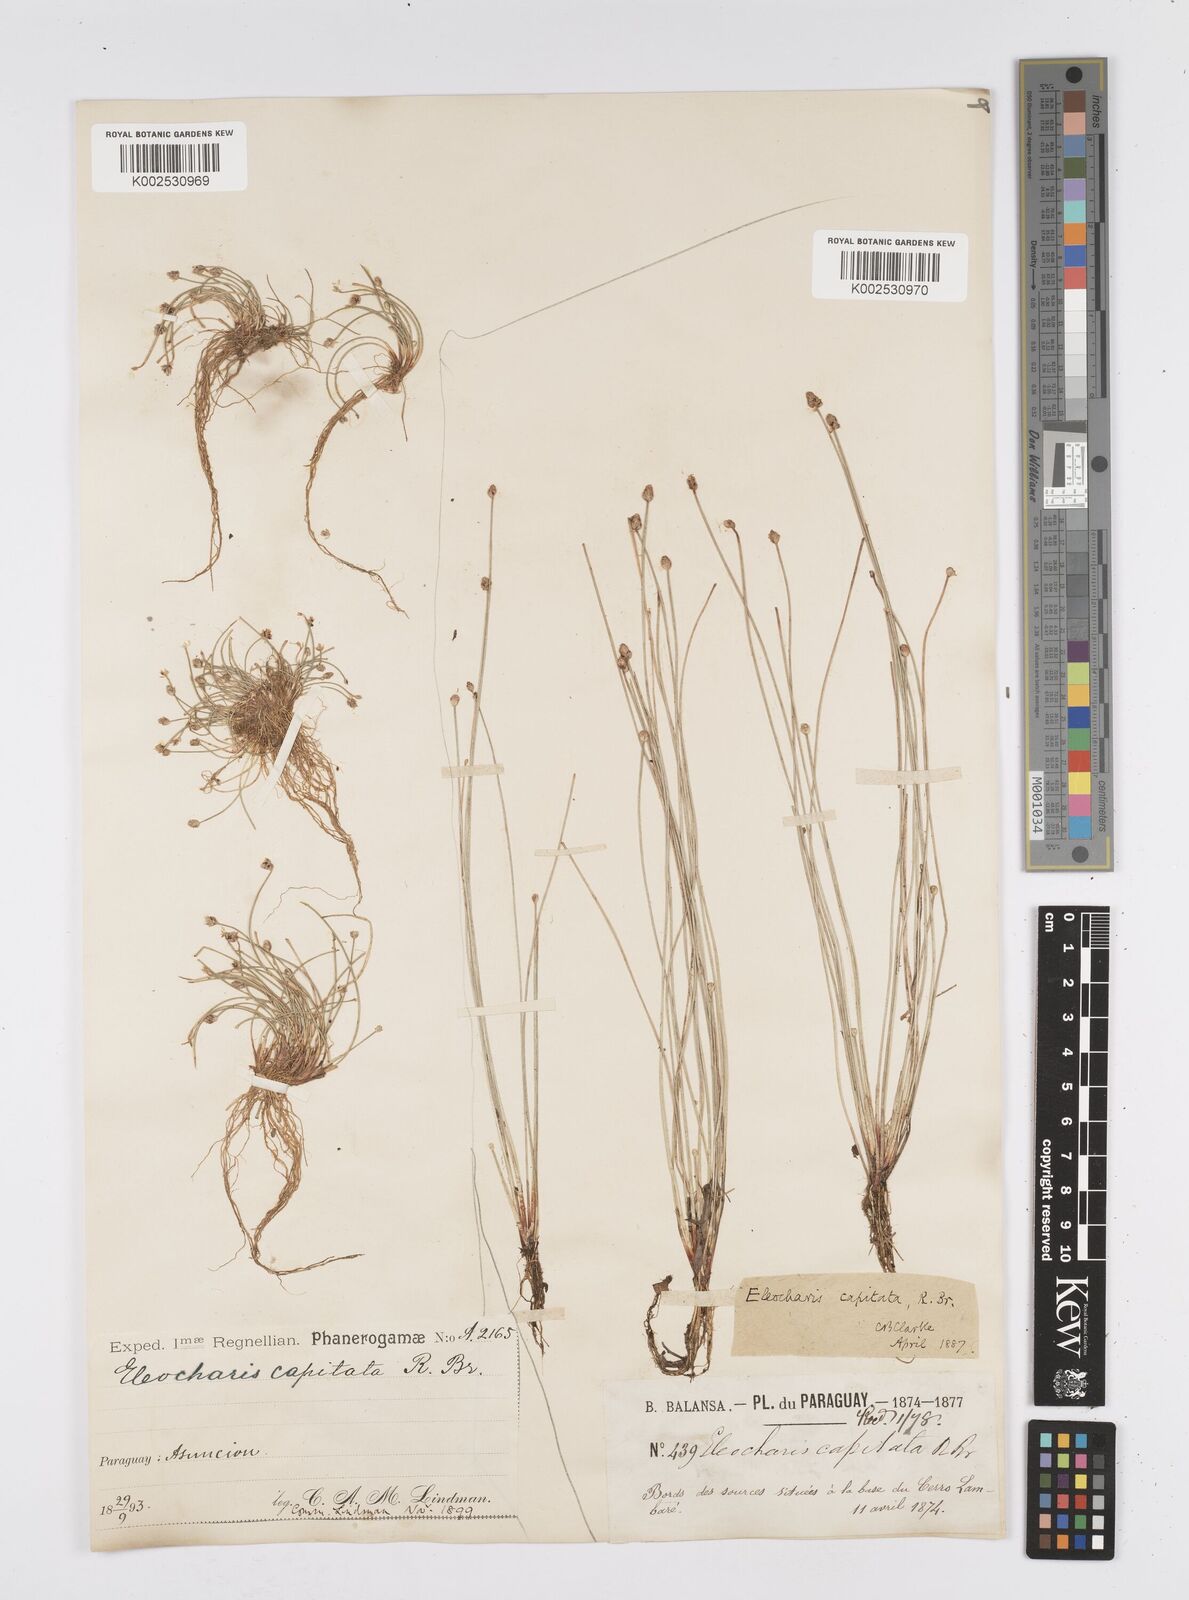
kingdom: Plantae
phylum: Tracheophyta
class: Liliopsida
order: Poales
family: Cyperaceae
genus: Eleocharis
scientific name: Eleocharis geniculata
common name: Canada spikesedge
